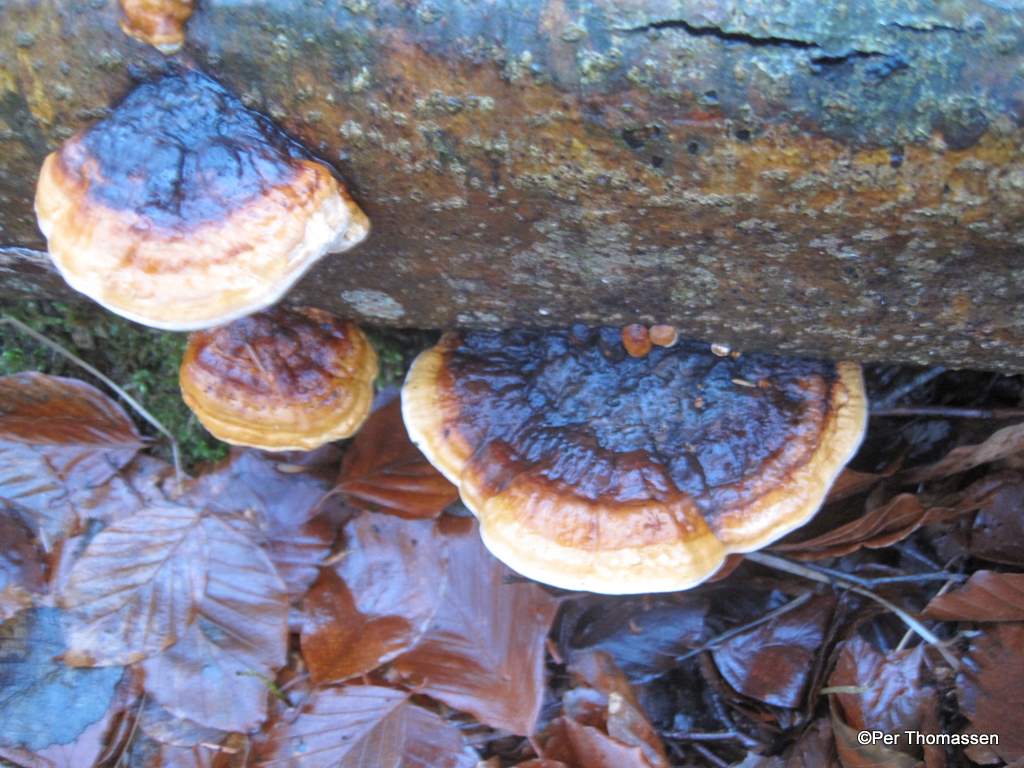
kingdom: Fungi
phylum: Basidiomycota
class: Agaricomycetes
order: Polyporales
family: Fomitopsidaceae
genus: Fomitopsis
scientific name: Fomitopsis pinicola
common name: randbæltet hovporesvamp
